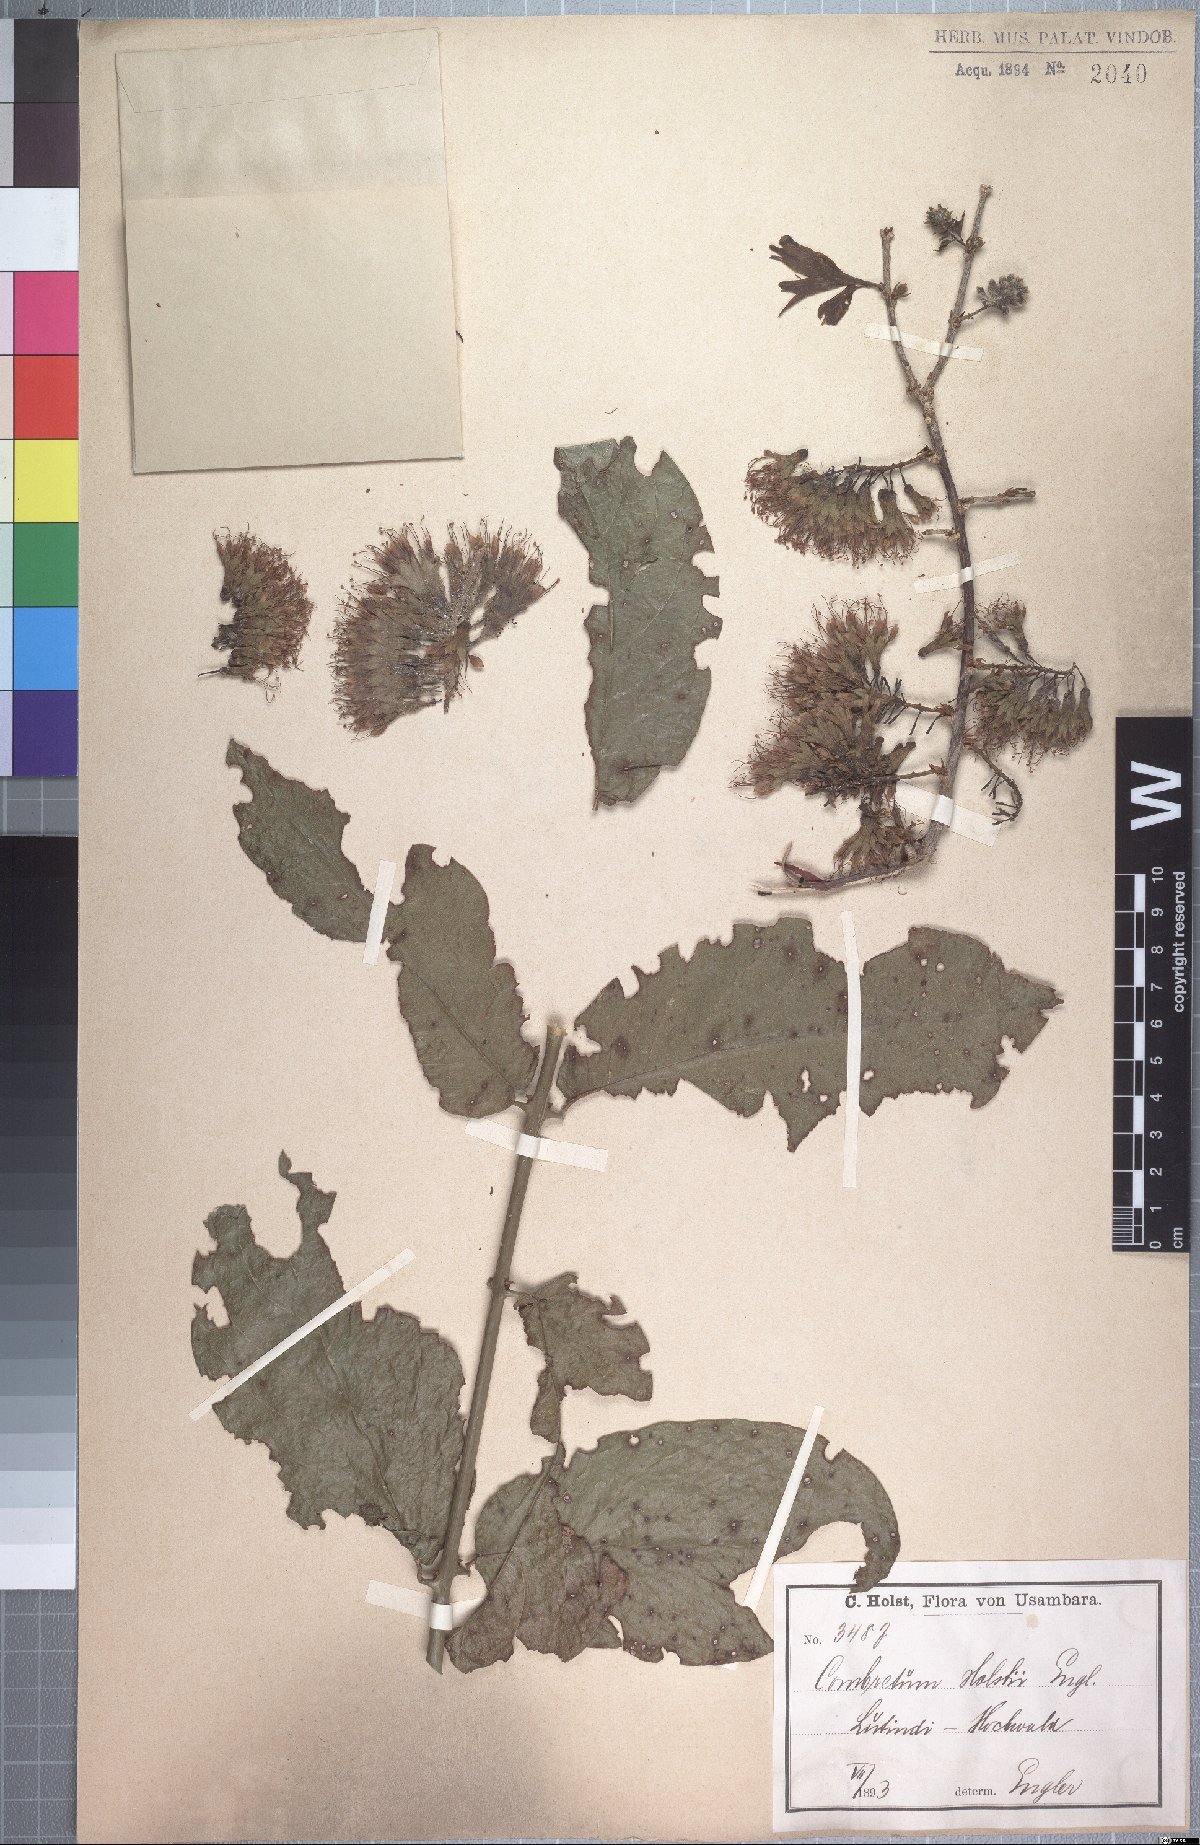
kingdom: Plantae
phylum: Tracheophyta
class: Magnoliopsida
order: Myrtales
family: Combretaceae
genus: Combretum
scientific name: Combretum holstii
